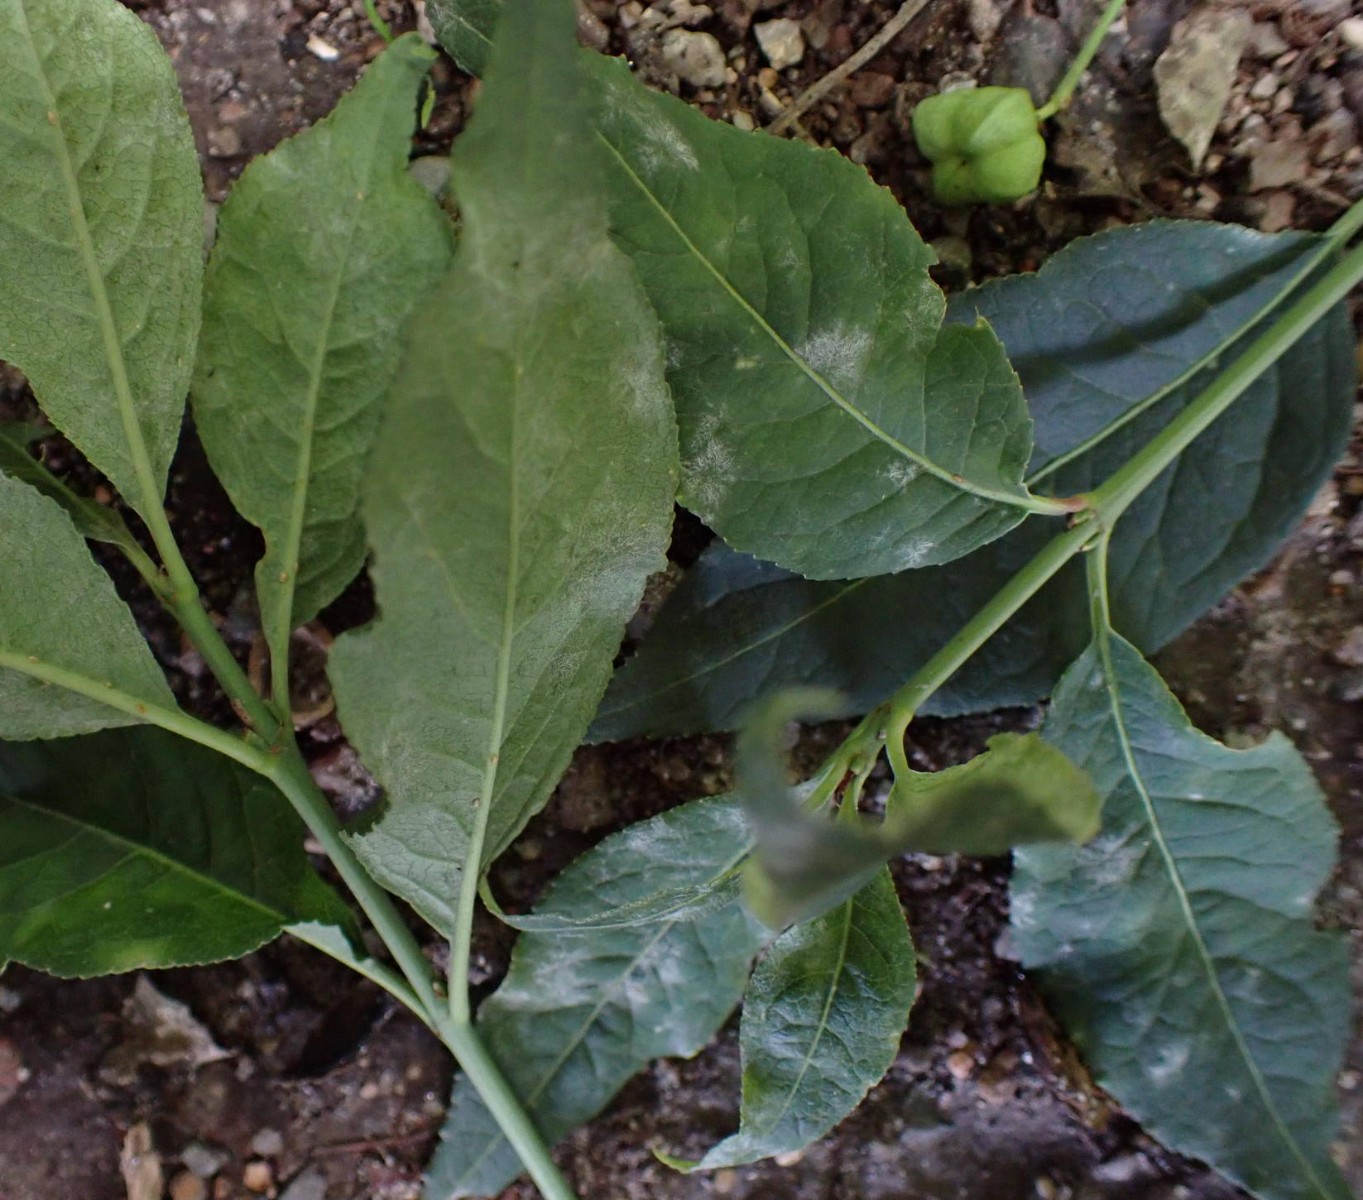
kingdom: Fungi
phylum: Ascomycota
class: Leotiomycetes
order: Helotiales
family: Erysiphaceae
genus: Erysiphe
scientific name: Erysiphe euonymi
